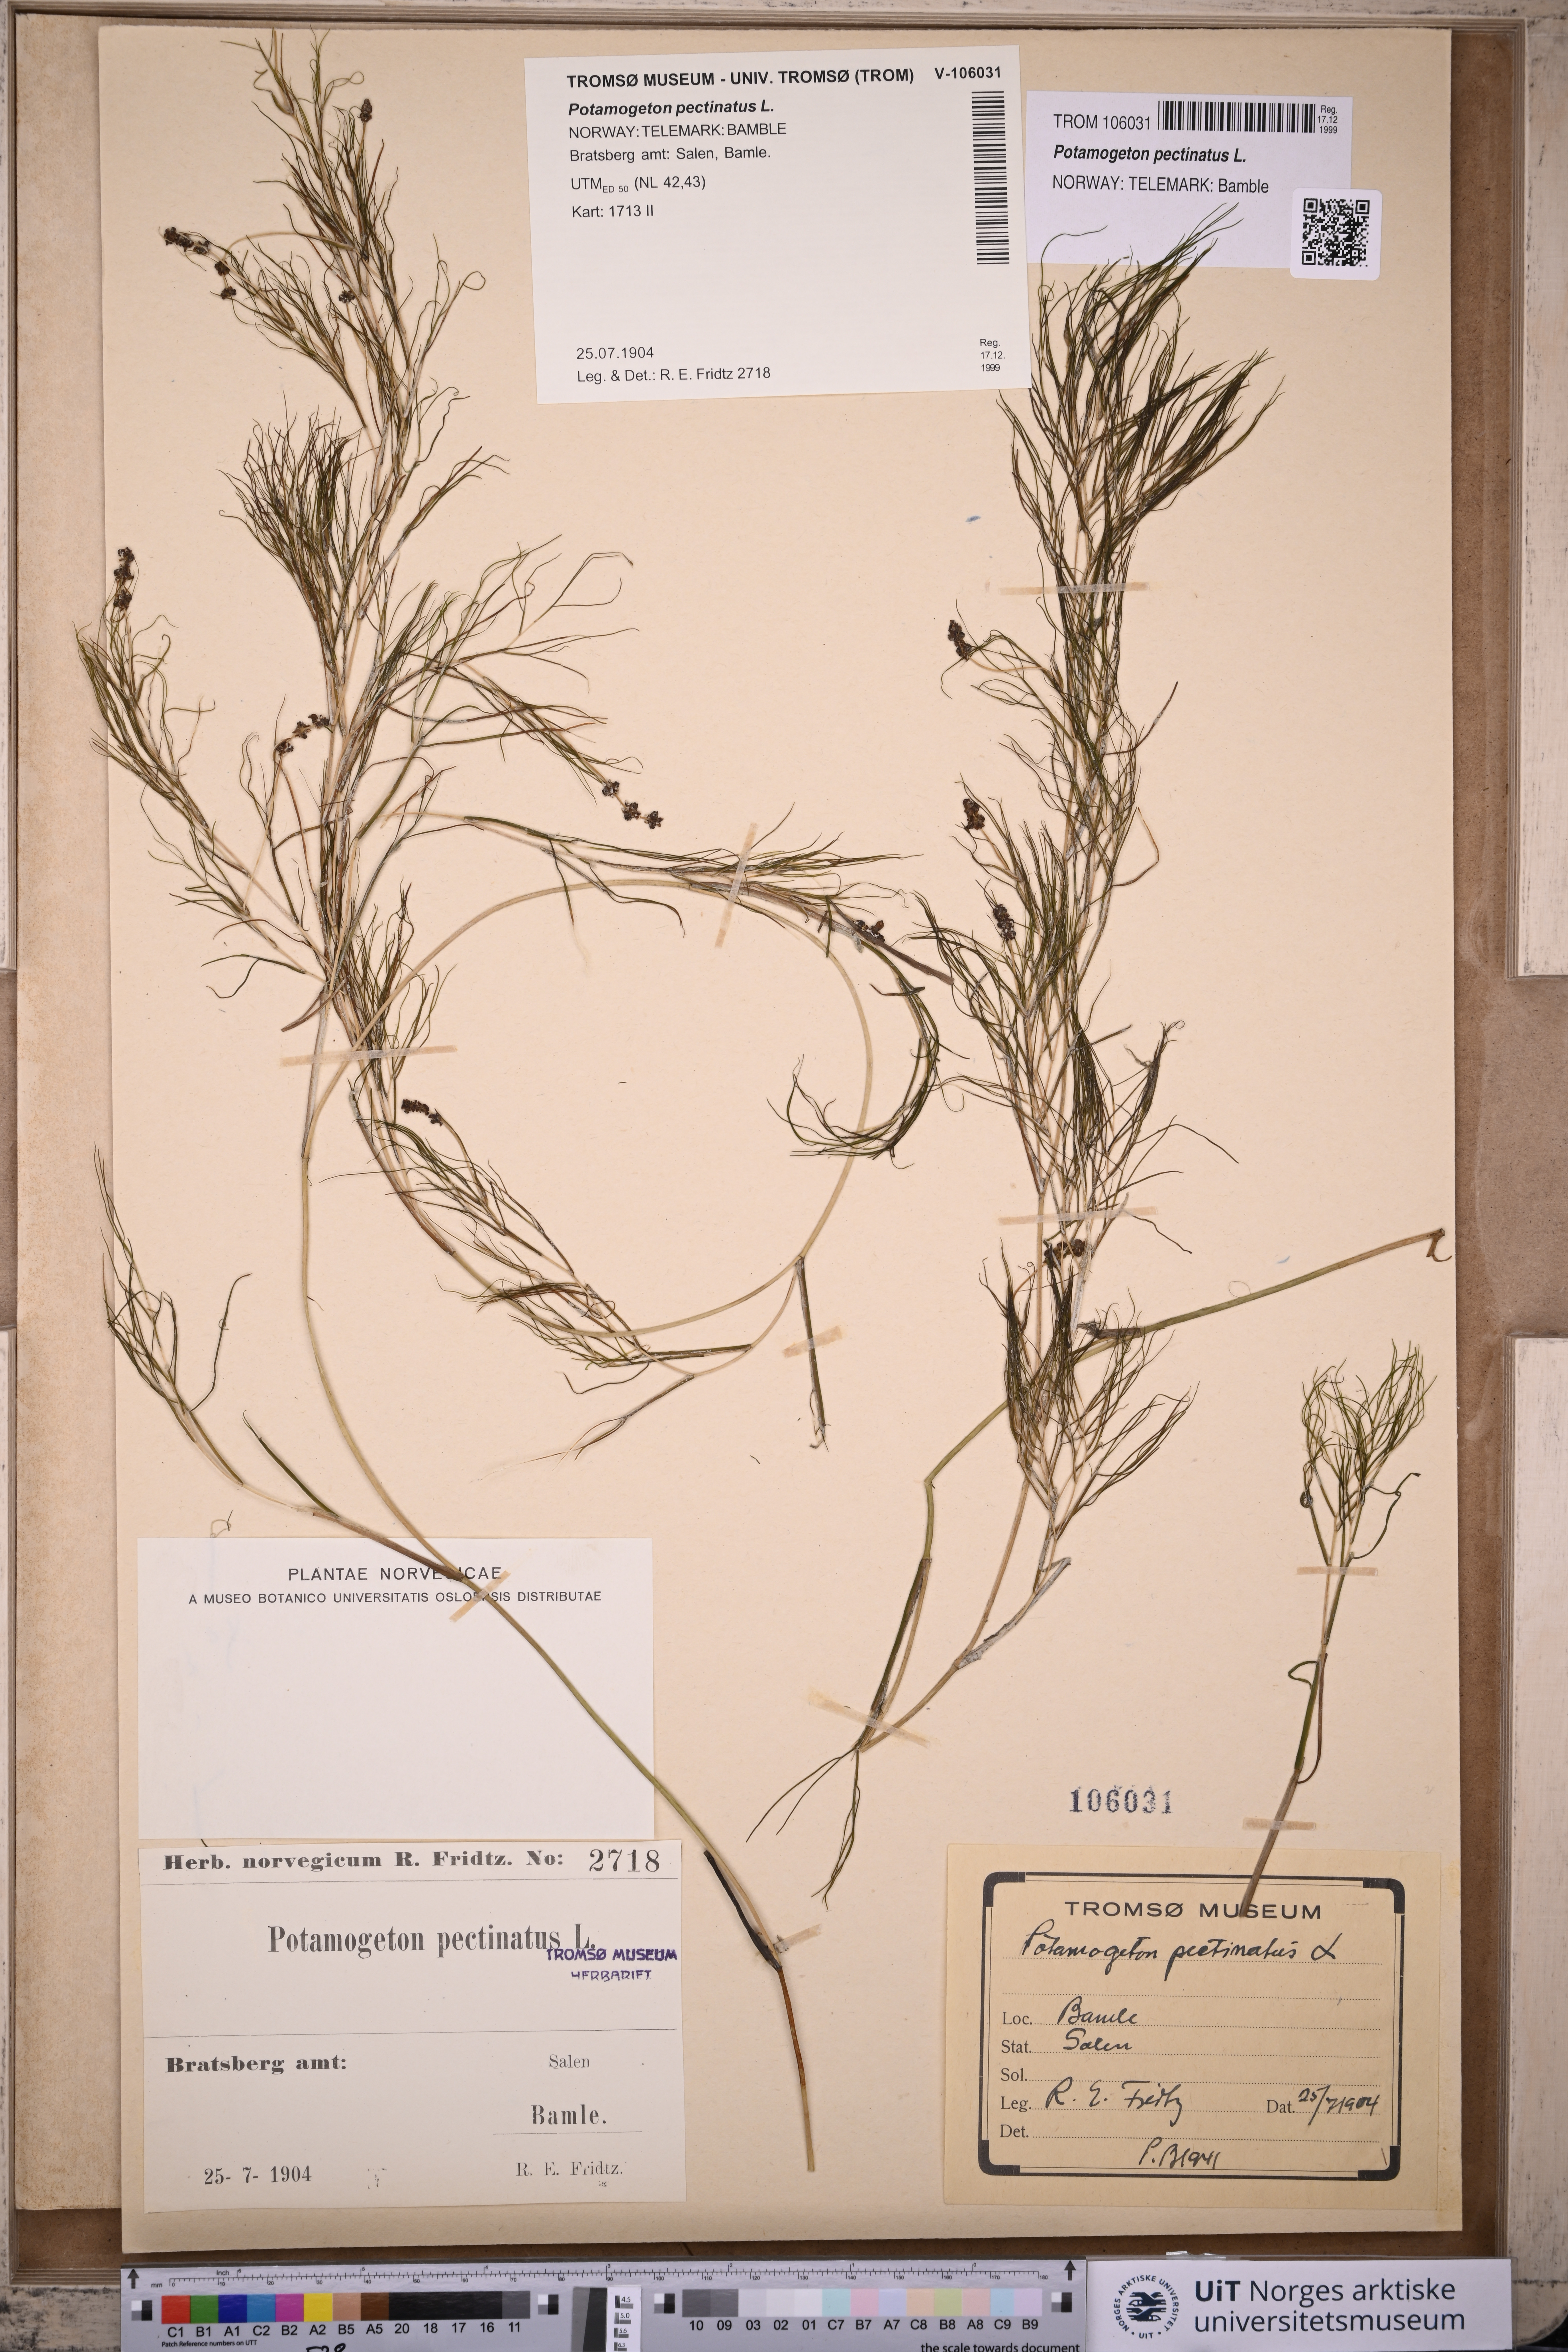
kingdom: Plantae
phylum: Tracheophyta
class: Liliopsida
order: Alismatales
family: Potamogetonaceae
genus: Stuckenia
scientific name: Stuckenia pectinata
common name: Sago pondweed
